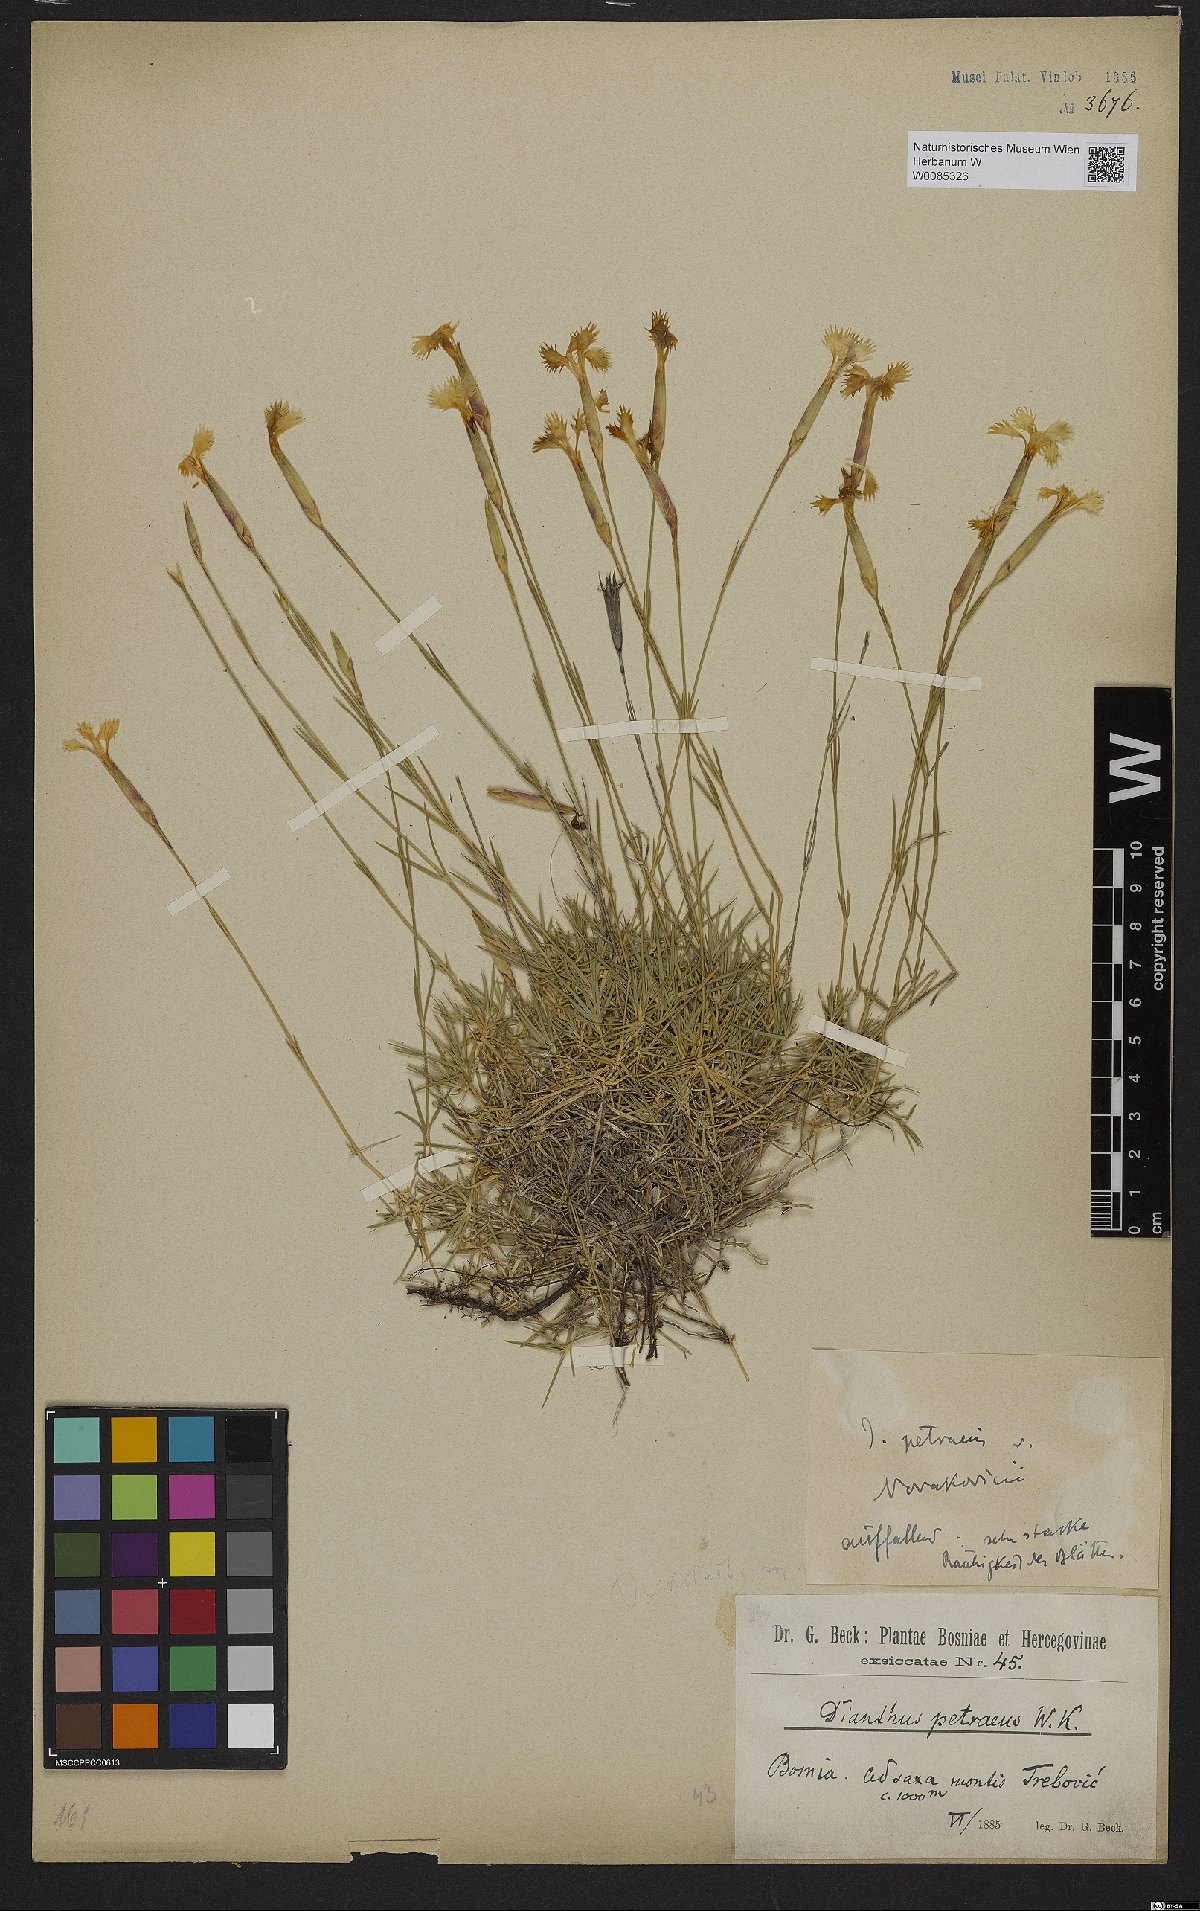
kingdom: Plantae
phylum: Tracheophyta
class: Magnoliopsida
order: Caryophyllales
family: Caryophyllaceae
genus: Dianthus
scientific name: Dianthus petraeus
